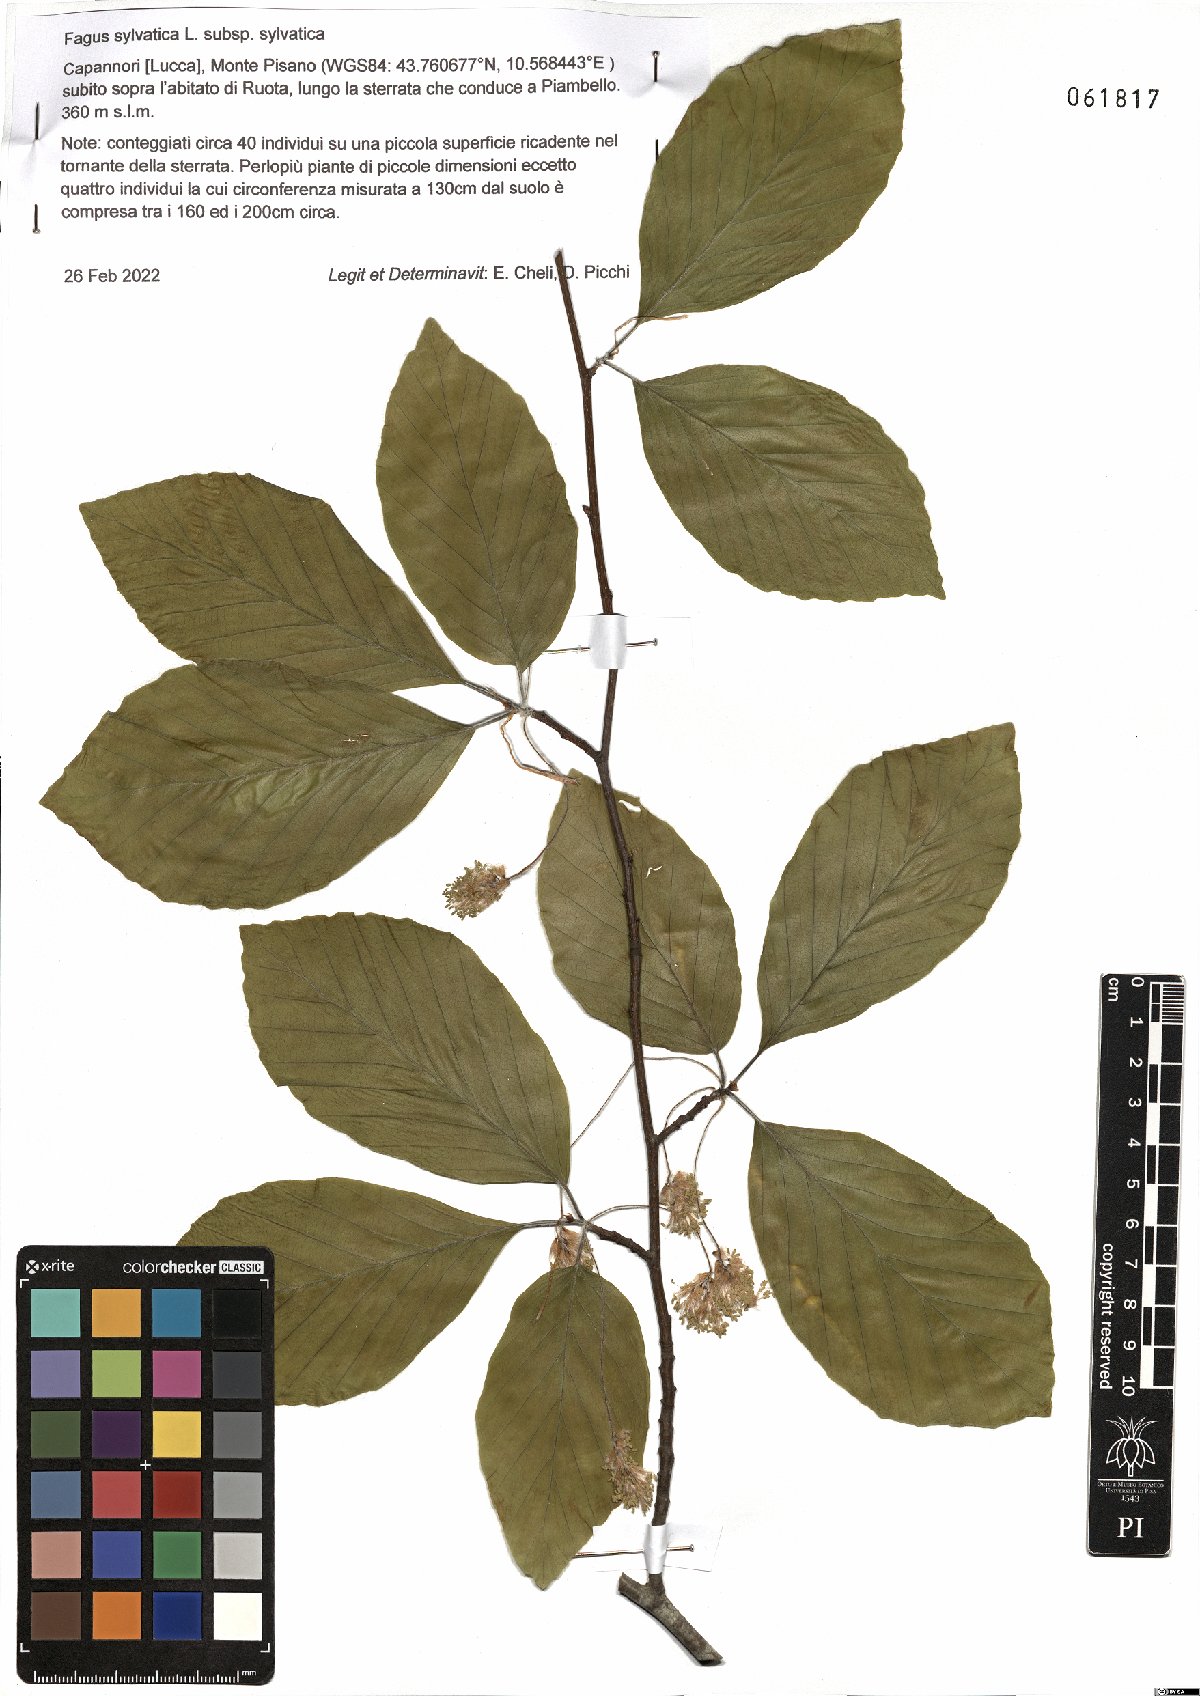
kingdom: Plantae
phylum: Tracheophyta
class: Magnoliopsida
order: Fagales
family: Fagaceae
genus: Fagus
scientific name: Fagus sylvatica
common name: Beech
